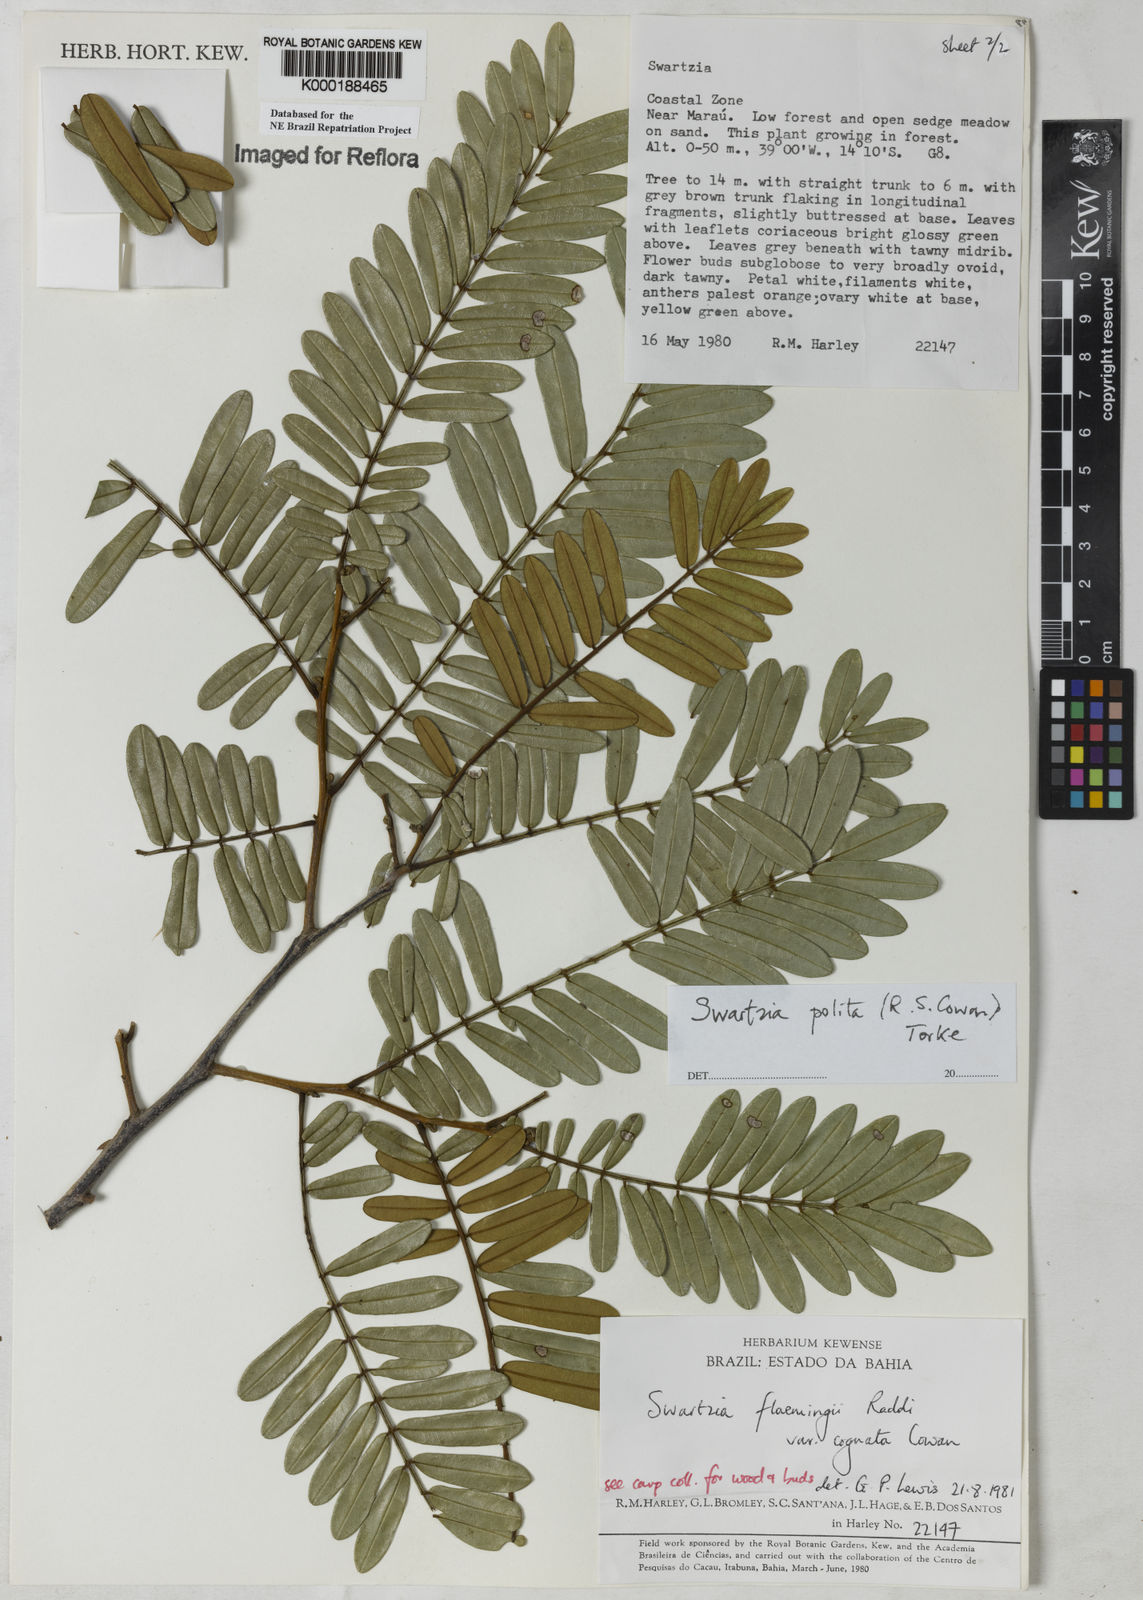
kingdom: Plantae
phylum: Tracheophyta
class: Magnoliopsida
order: Fabales
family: Fabaceae
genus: Swartzia
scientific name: Swartzia polita
